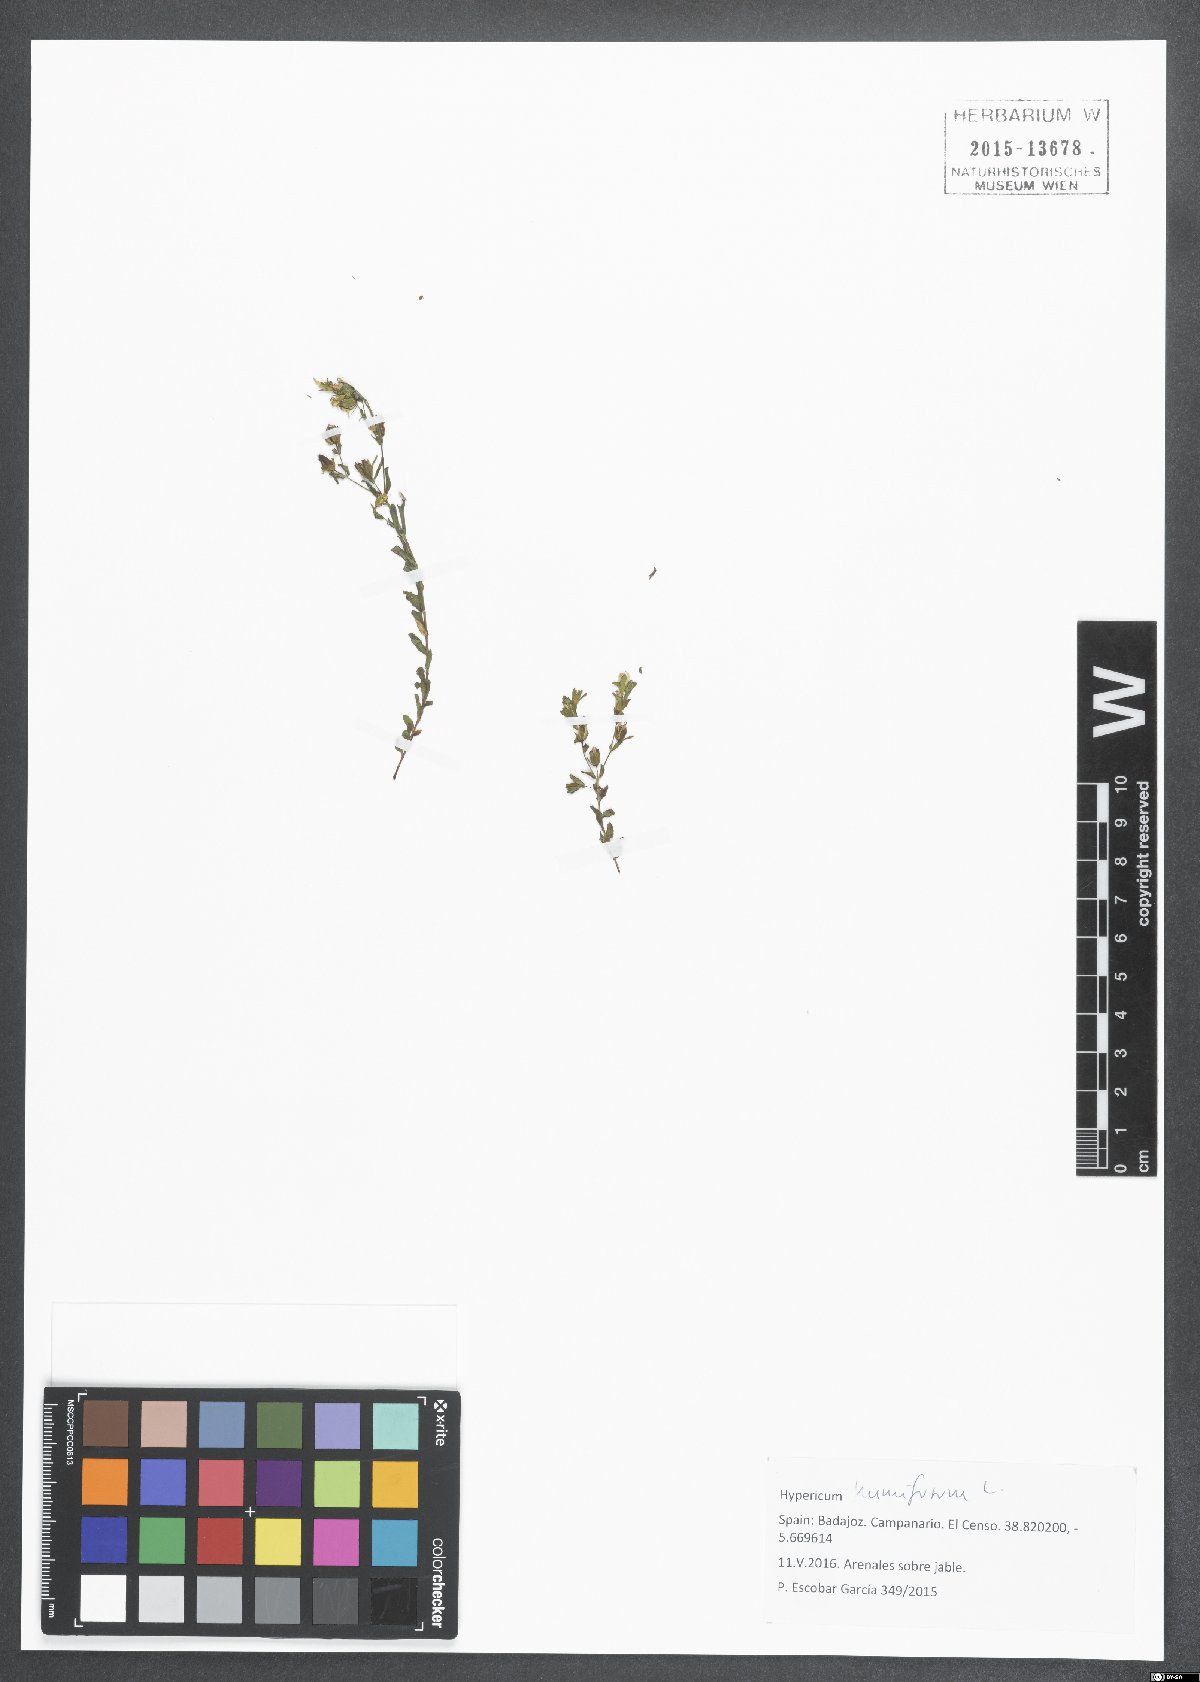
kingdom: Plantae
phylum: Tracheophyta
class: Magnoliopsida
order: Malpighiales
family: Hypericaceae
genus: Hypericum
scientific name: Hypericum humifusum
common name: Trailing st. john's-wort
